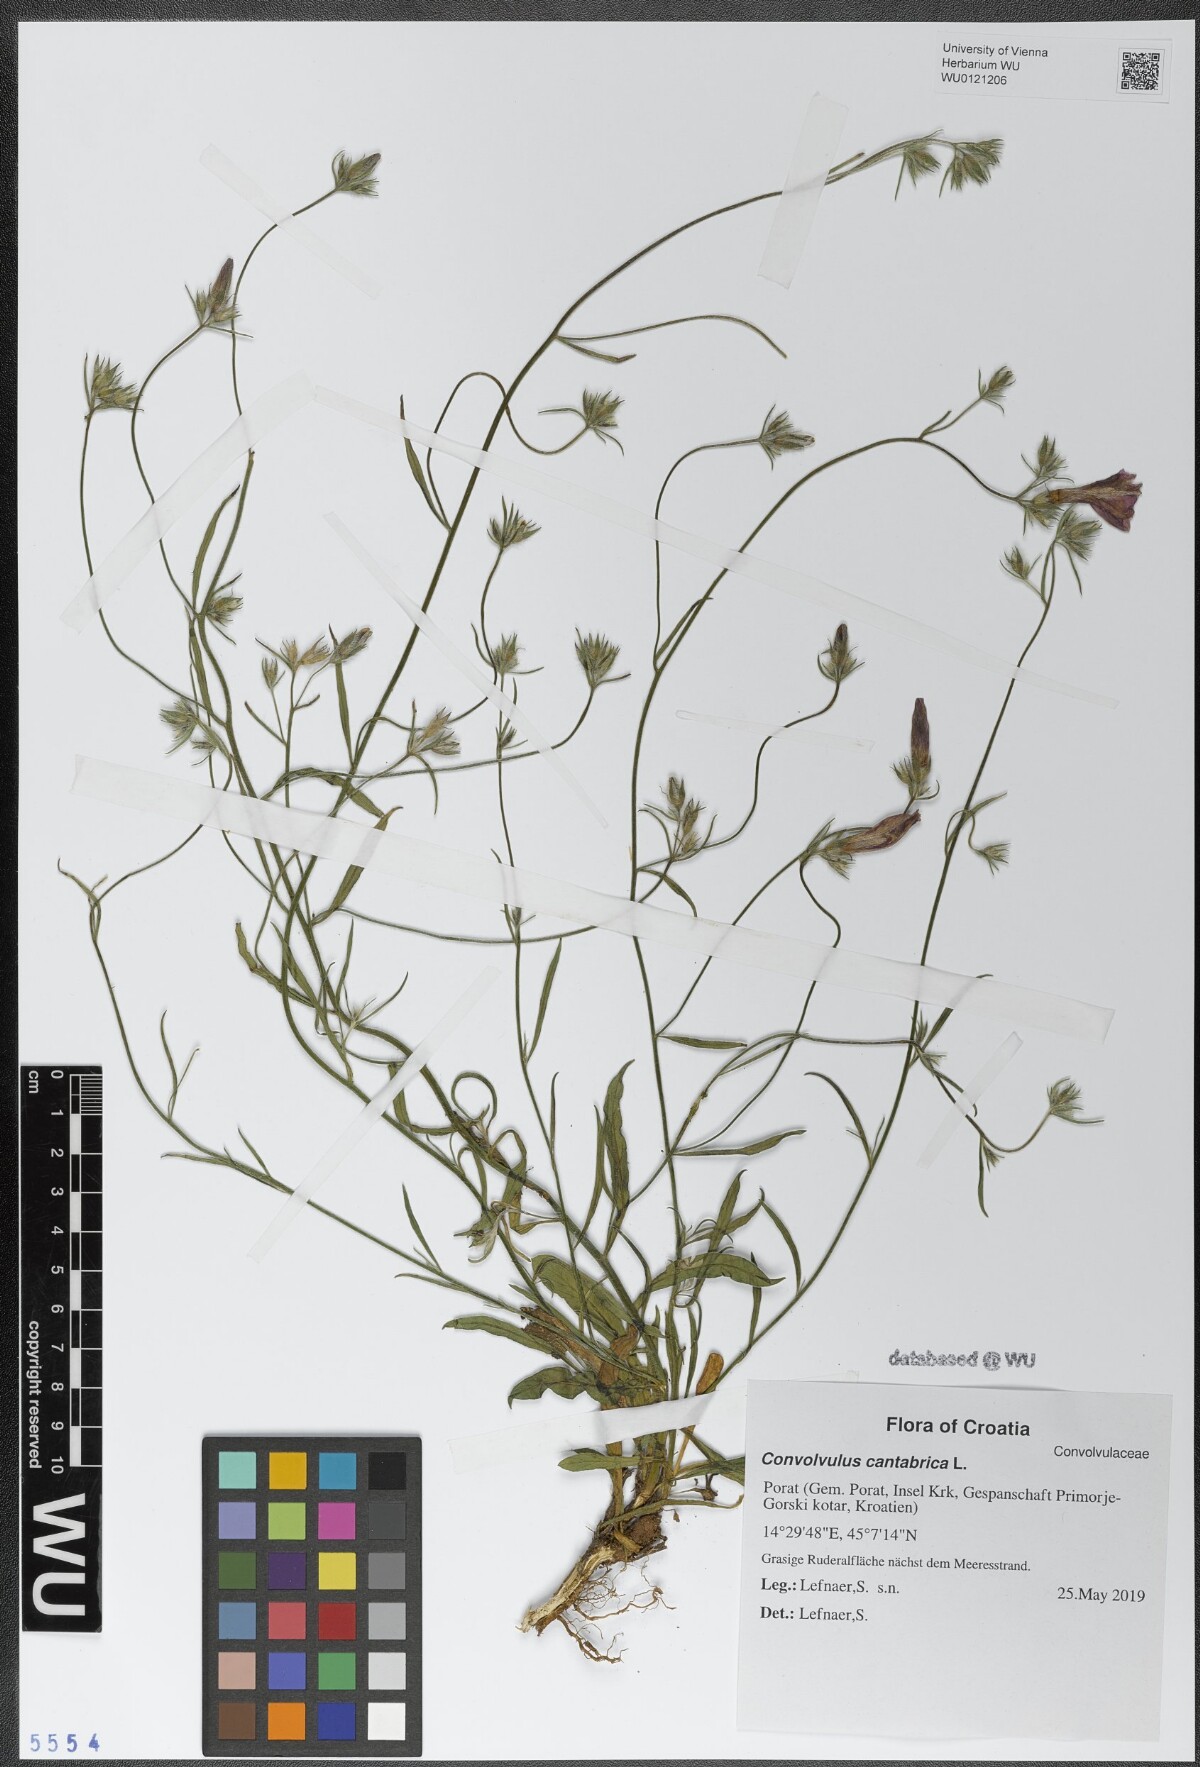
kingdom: Plantae
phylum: Tracheophyta
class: Magnoliopsida
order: Solanales
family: Convolvulaceae
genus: Convolvulus
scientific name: Convolvulus cantabrica
